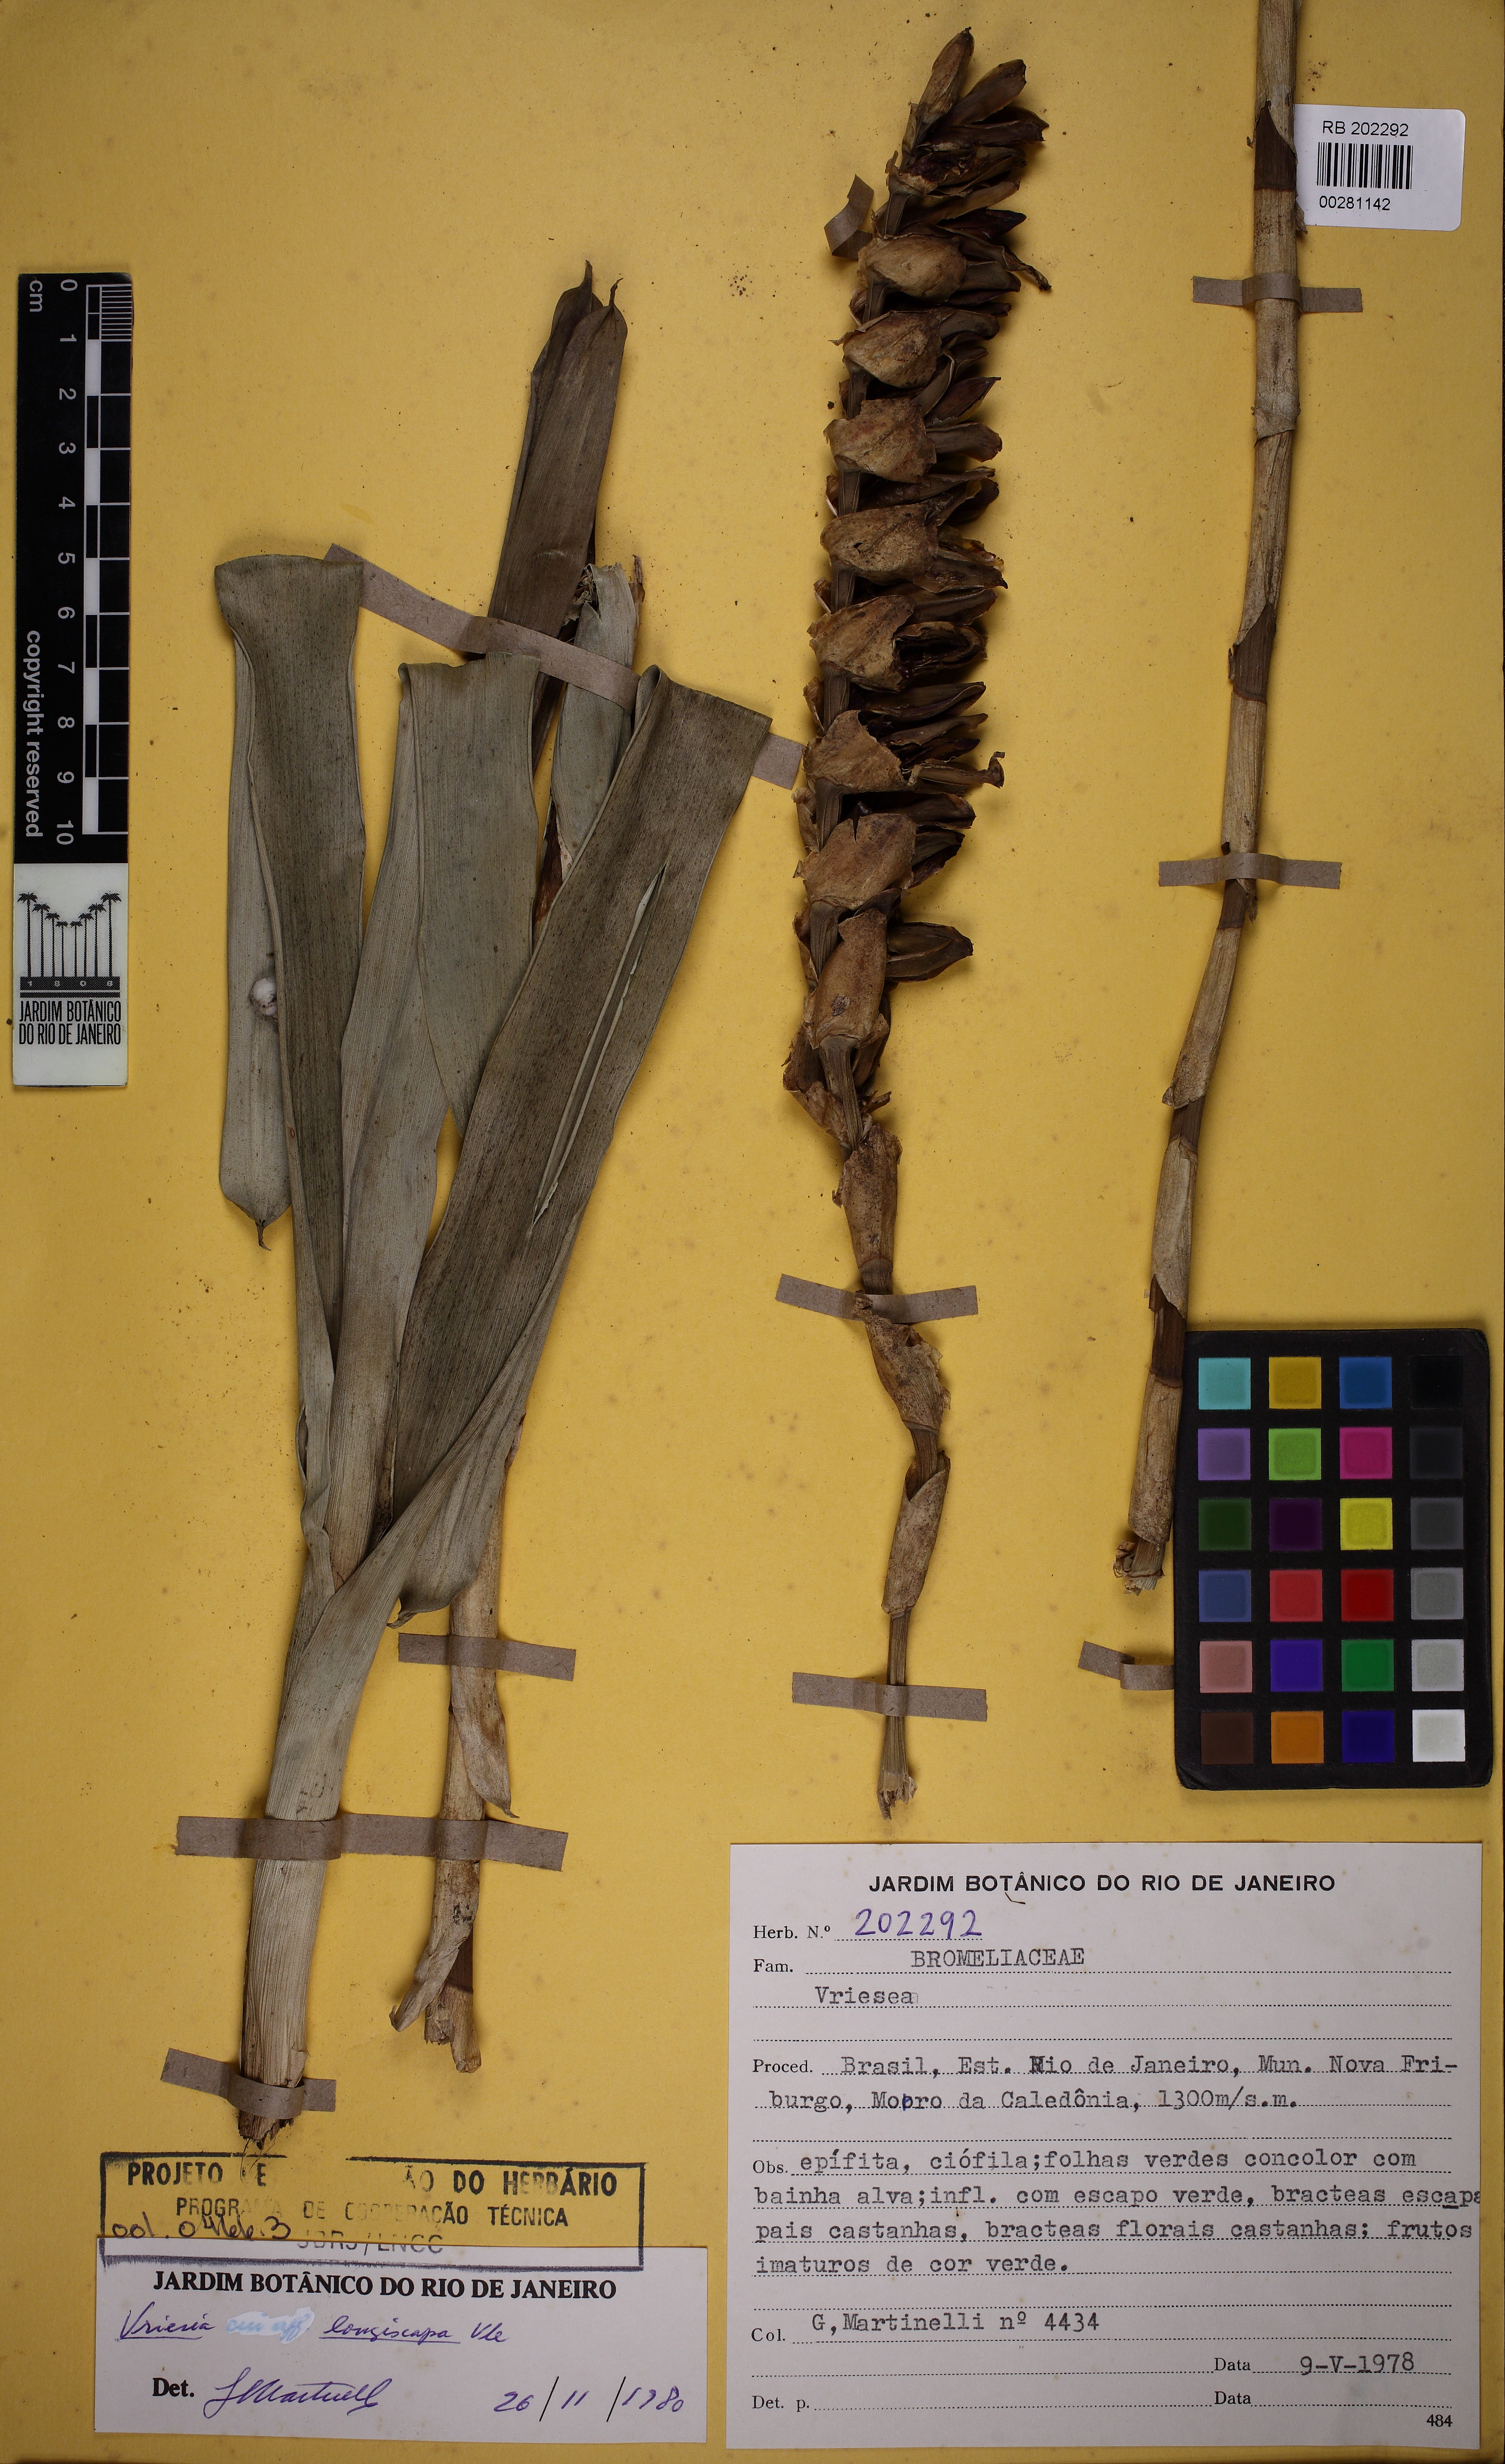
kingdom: Plantae
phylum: Tracheophyta
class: Liliopsida
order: Poales
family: Bromeliaceae
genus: Vriesea
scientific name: Vriesea longiscapa
